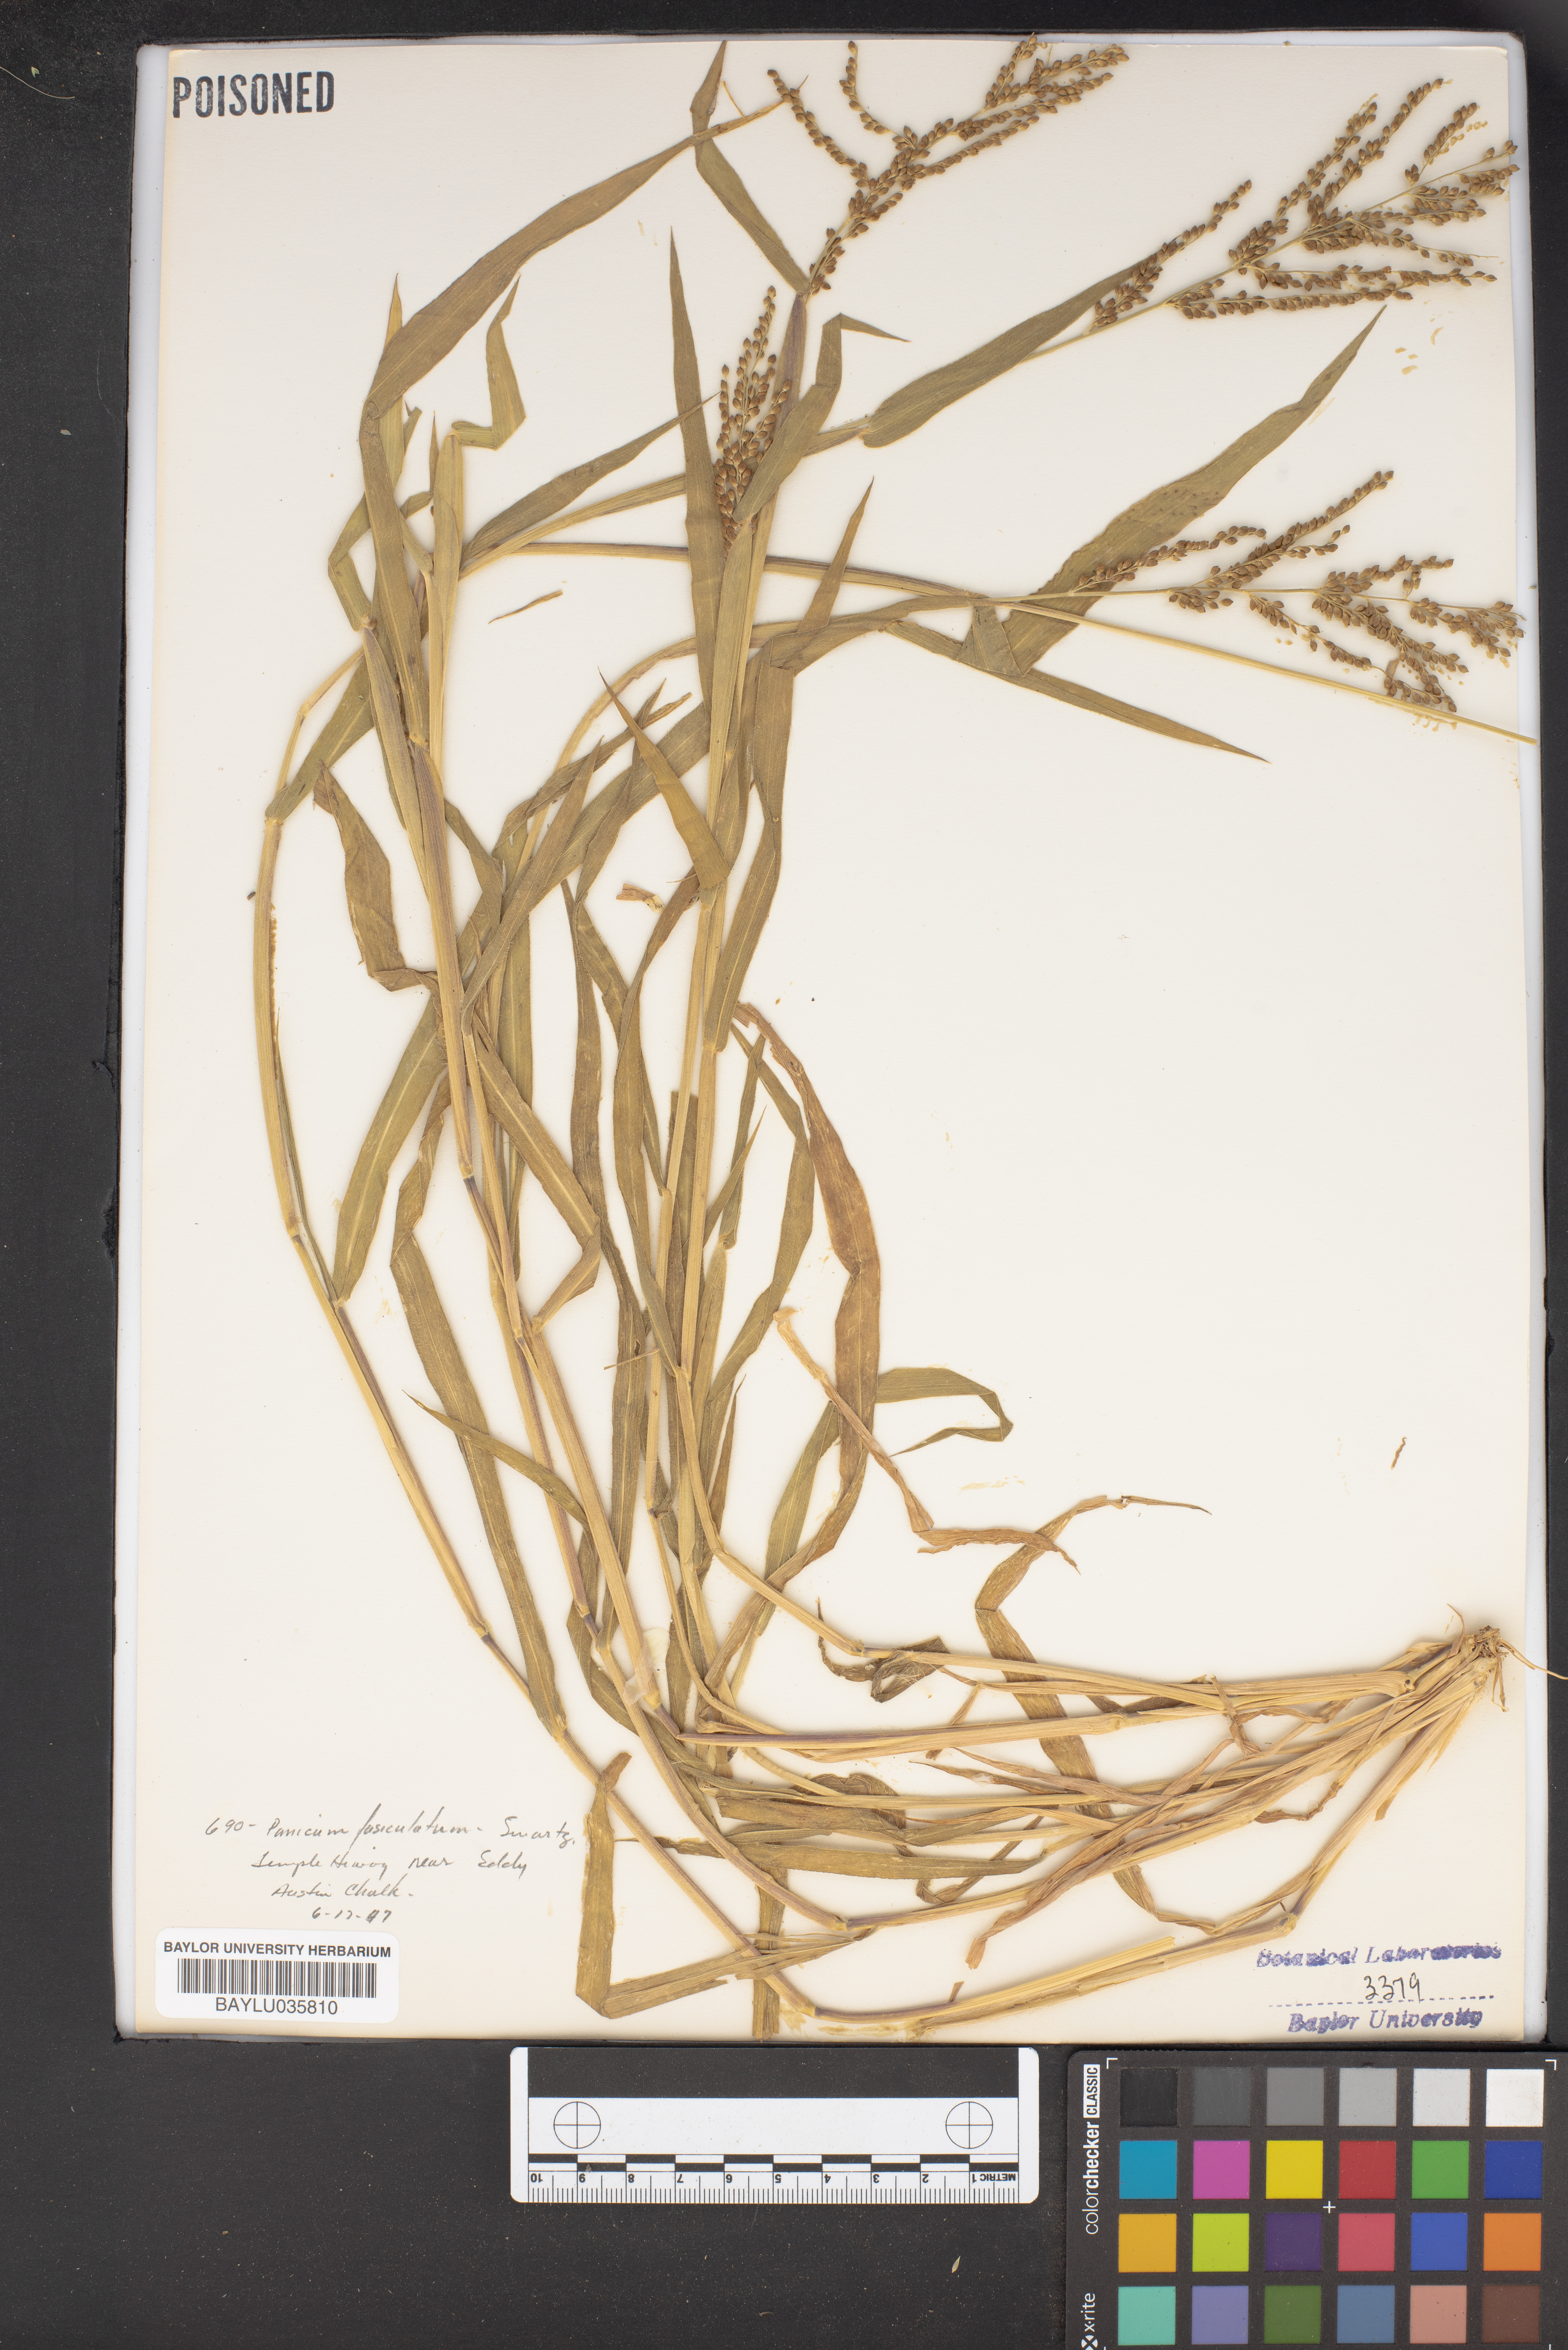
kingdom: Plantae
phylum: Tracheophyta
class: Liliopsida
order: Poales
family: Poaceae
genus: Urochloa
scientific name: Urochloa fusca
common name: Browntop signal grass
